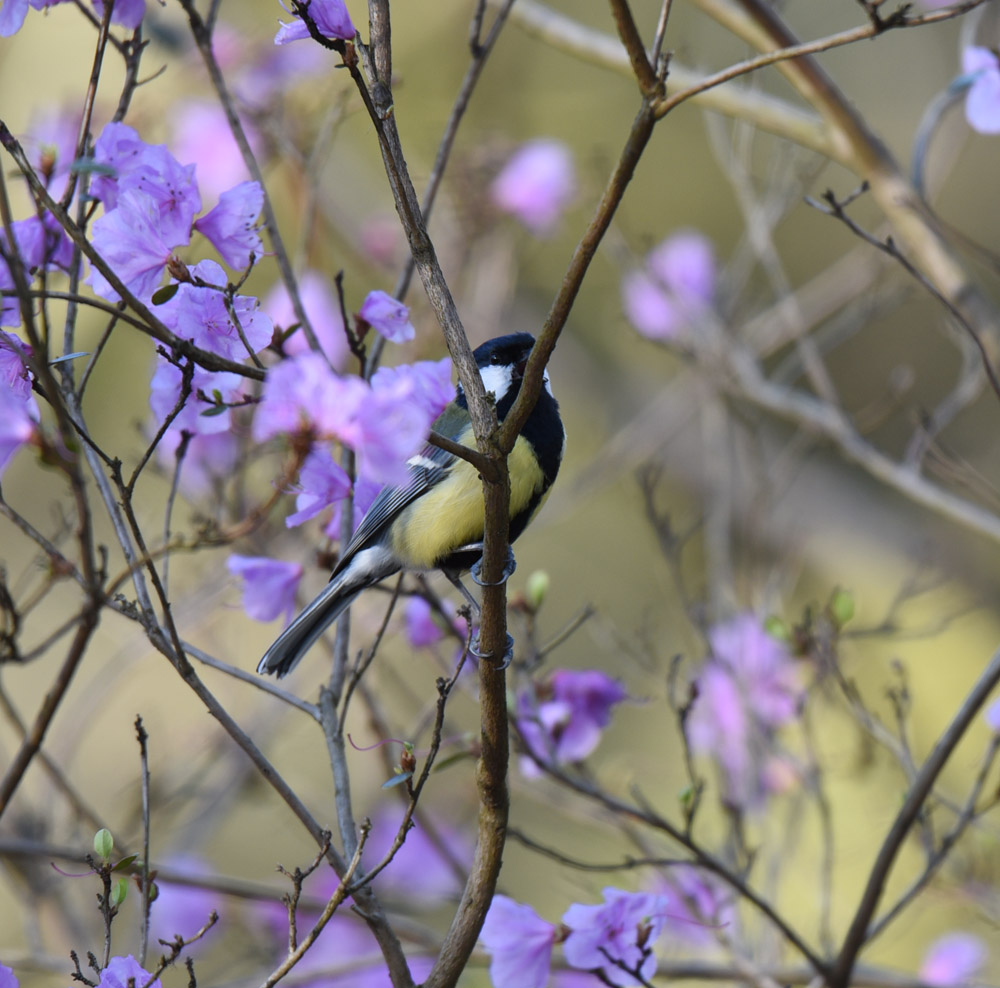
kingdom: Animalia
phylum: Chordata
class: Aves
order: Passeriformes
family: Paridae
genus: Parus
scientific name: Parus major
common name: Great tit
